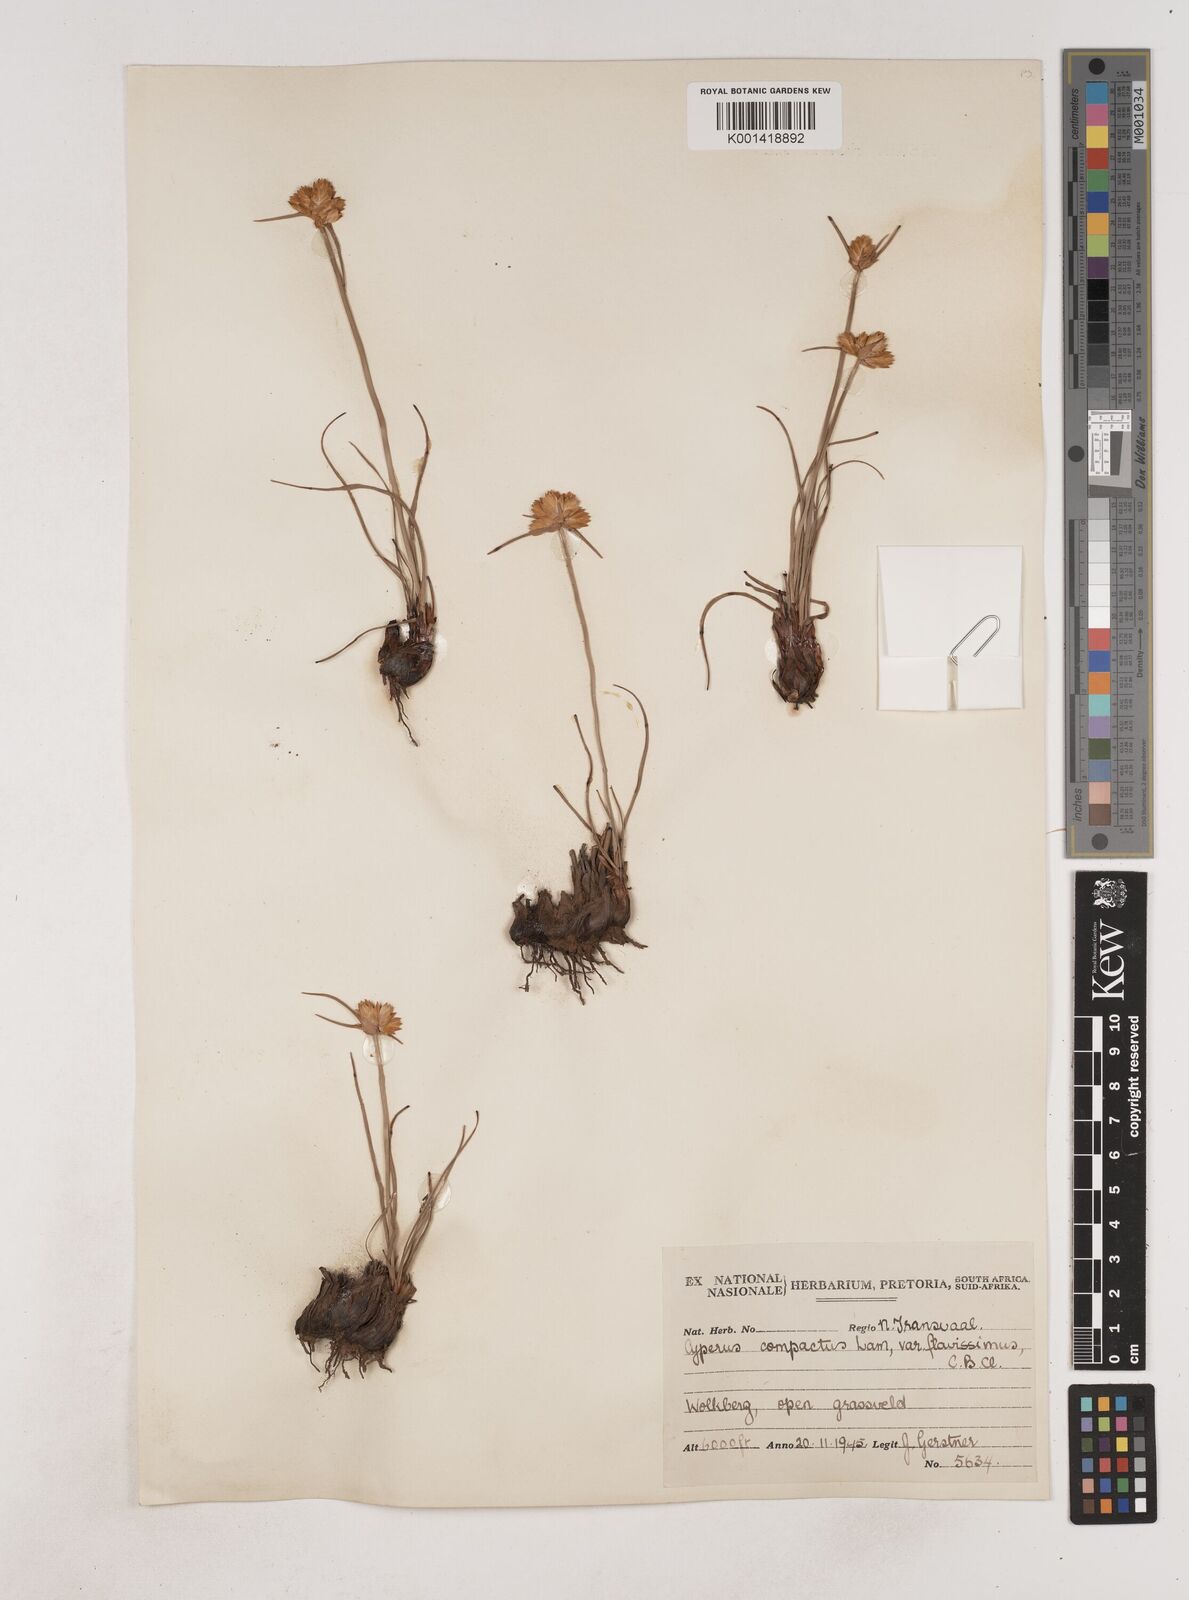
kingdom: Plantae
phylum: Tracheophyta
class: Liliopsida
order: Poales
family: Cyperaceae
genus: Cyperus
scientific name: Cyperus sphaerocephalus
